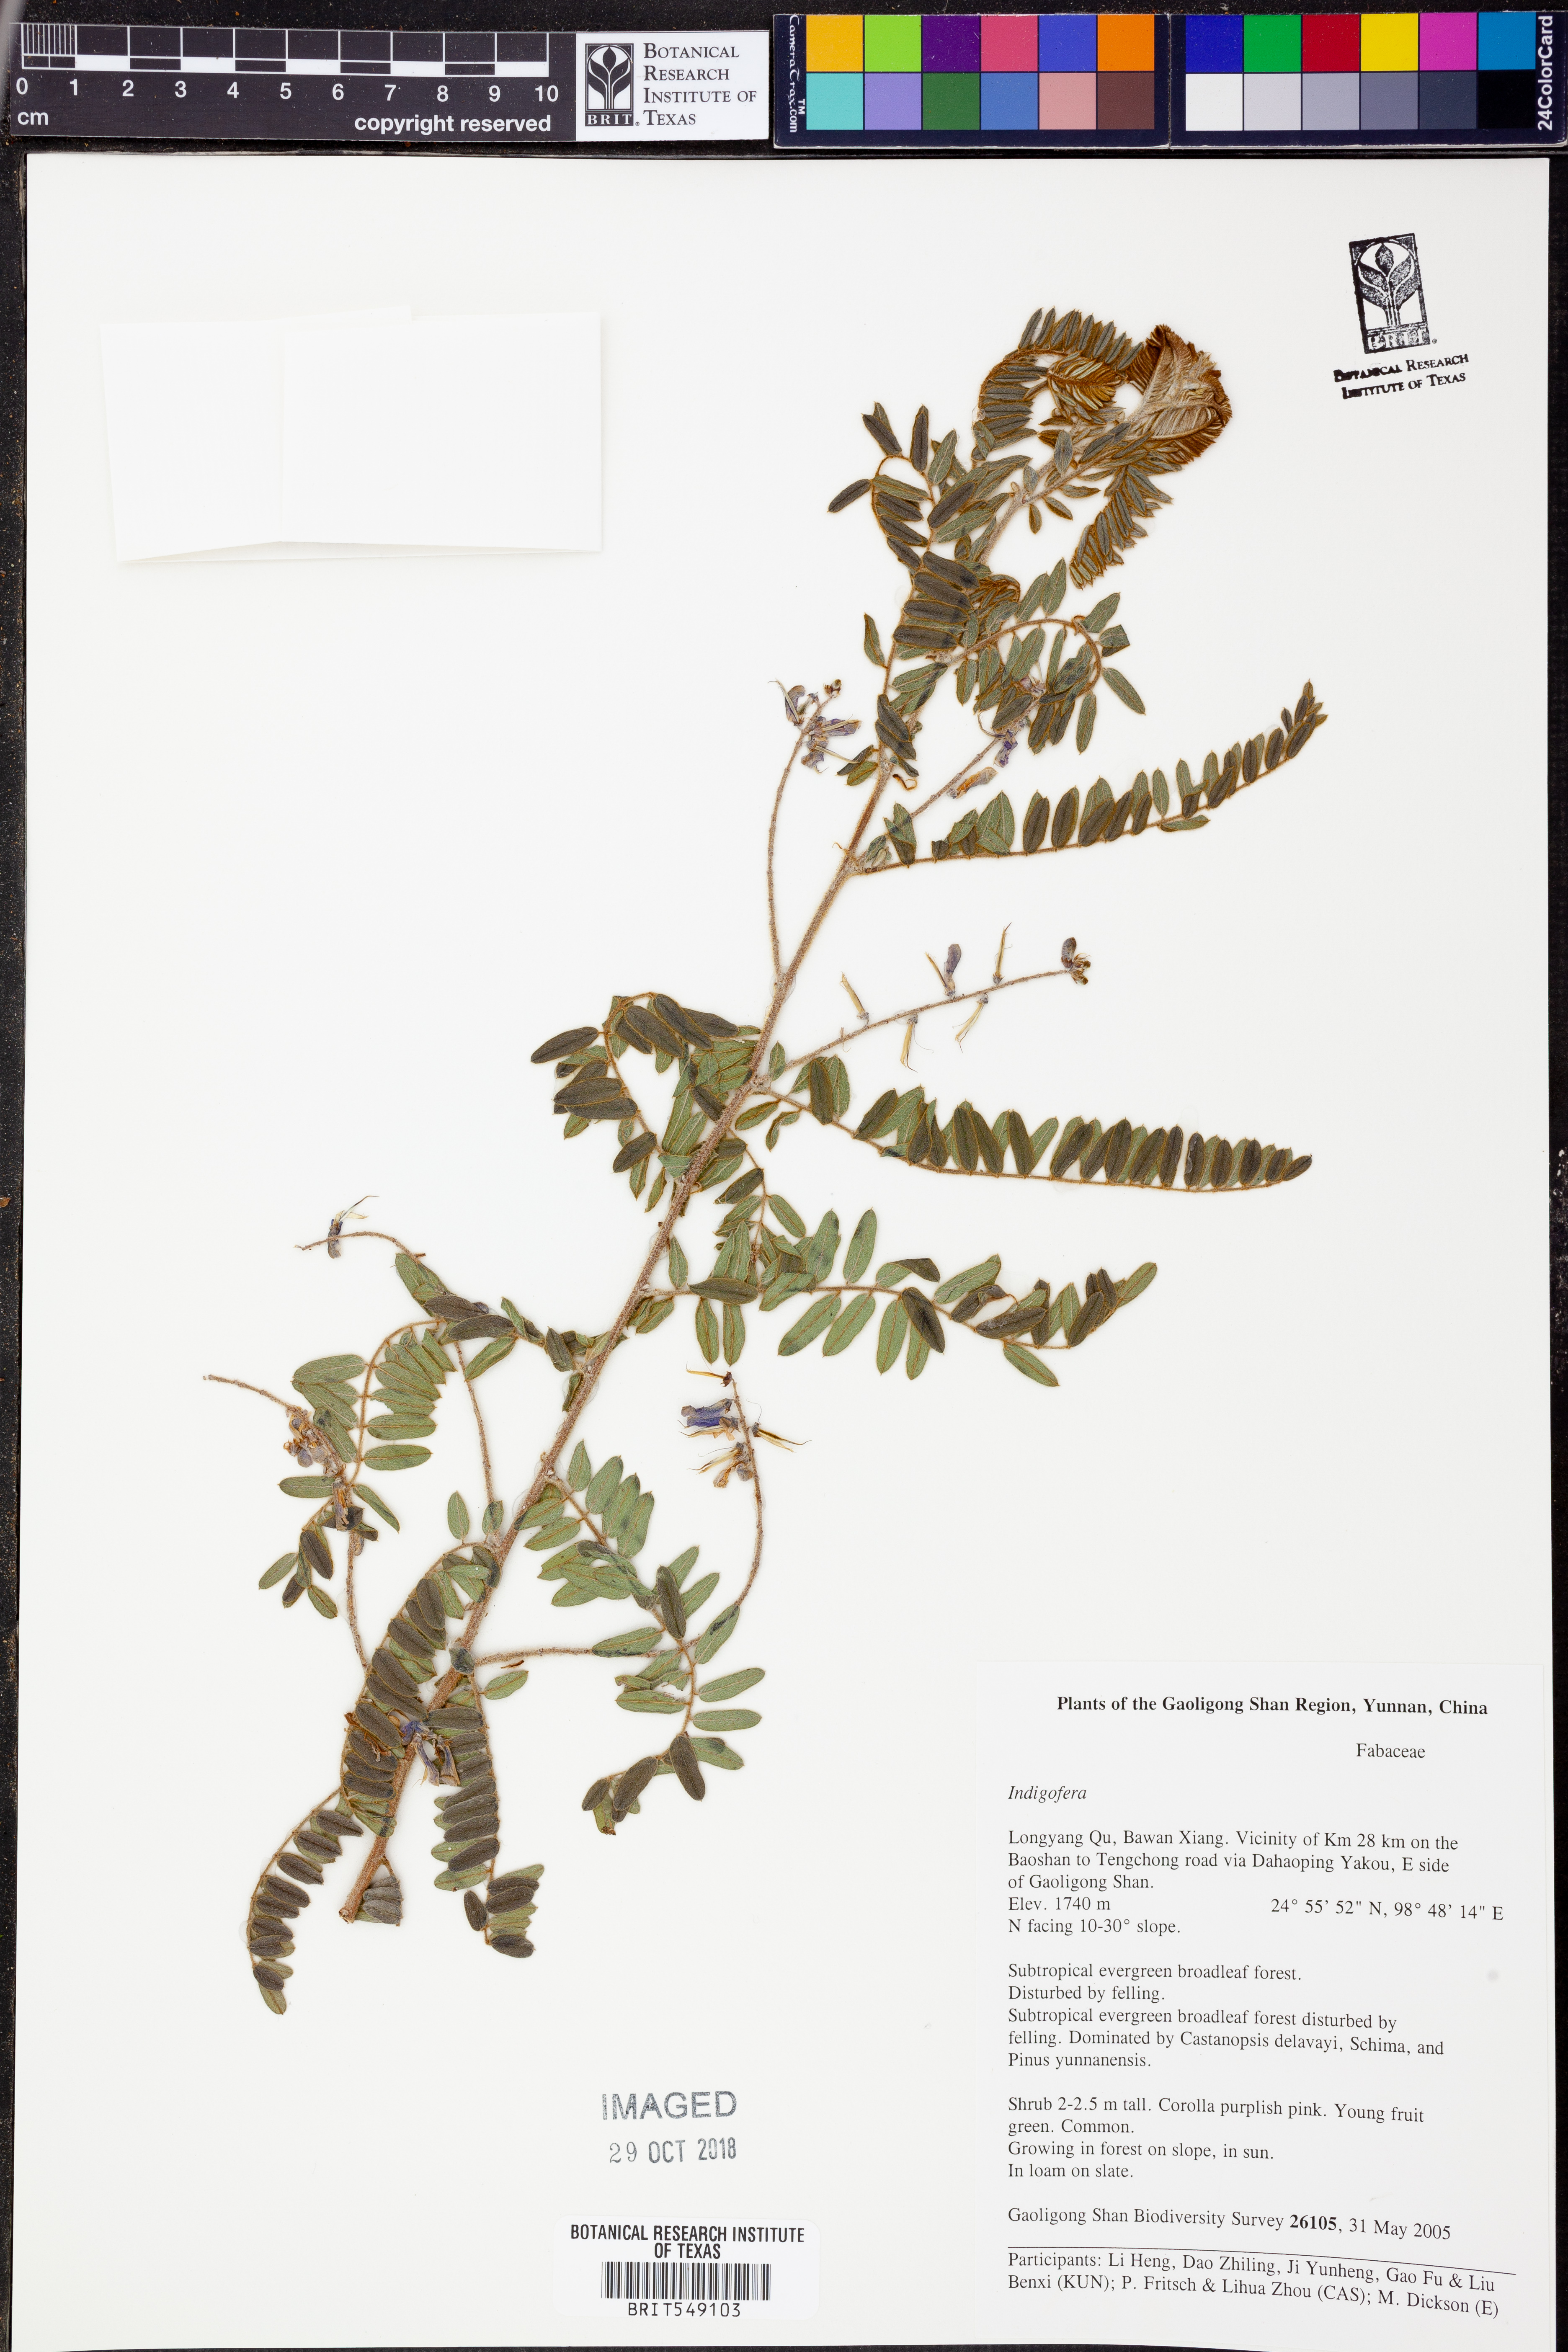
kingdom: Plantae
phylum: Tracheophyta
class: Magnoliopsida
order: Fabales
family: Fabaceae
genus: Indigofera
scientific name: Indigofera
